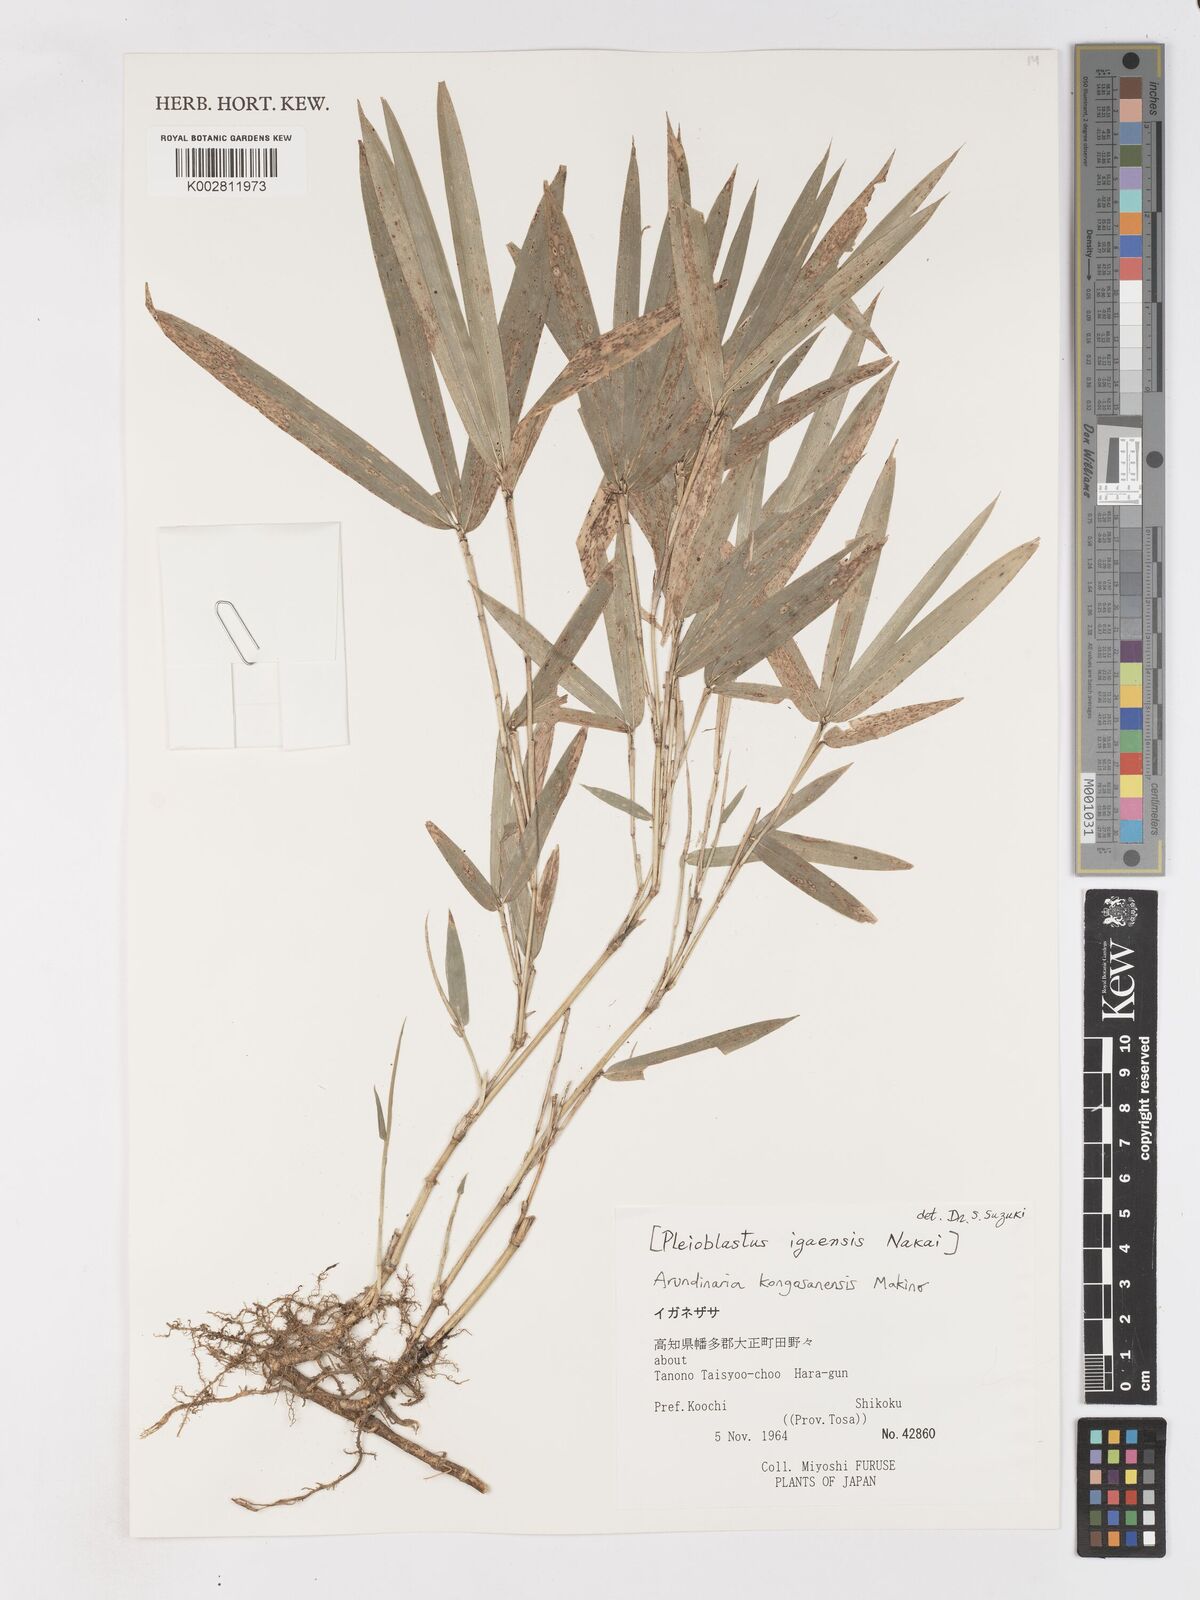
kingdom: Plantae
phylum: Tracheophyta
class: Liliopsida
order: Poales
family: Poaceae
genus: Sasaella
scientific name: Sasaella kogasensis
